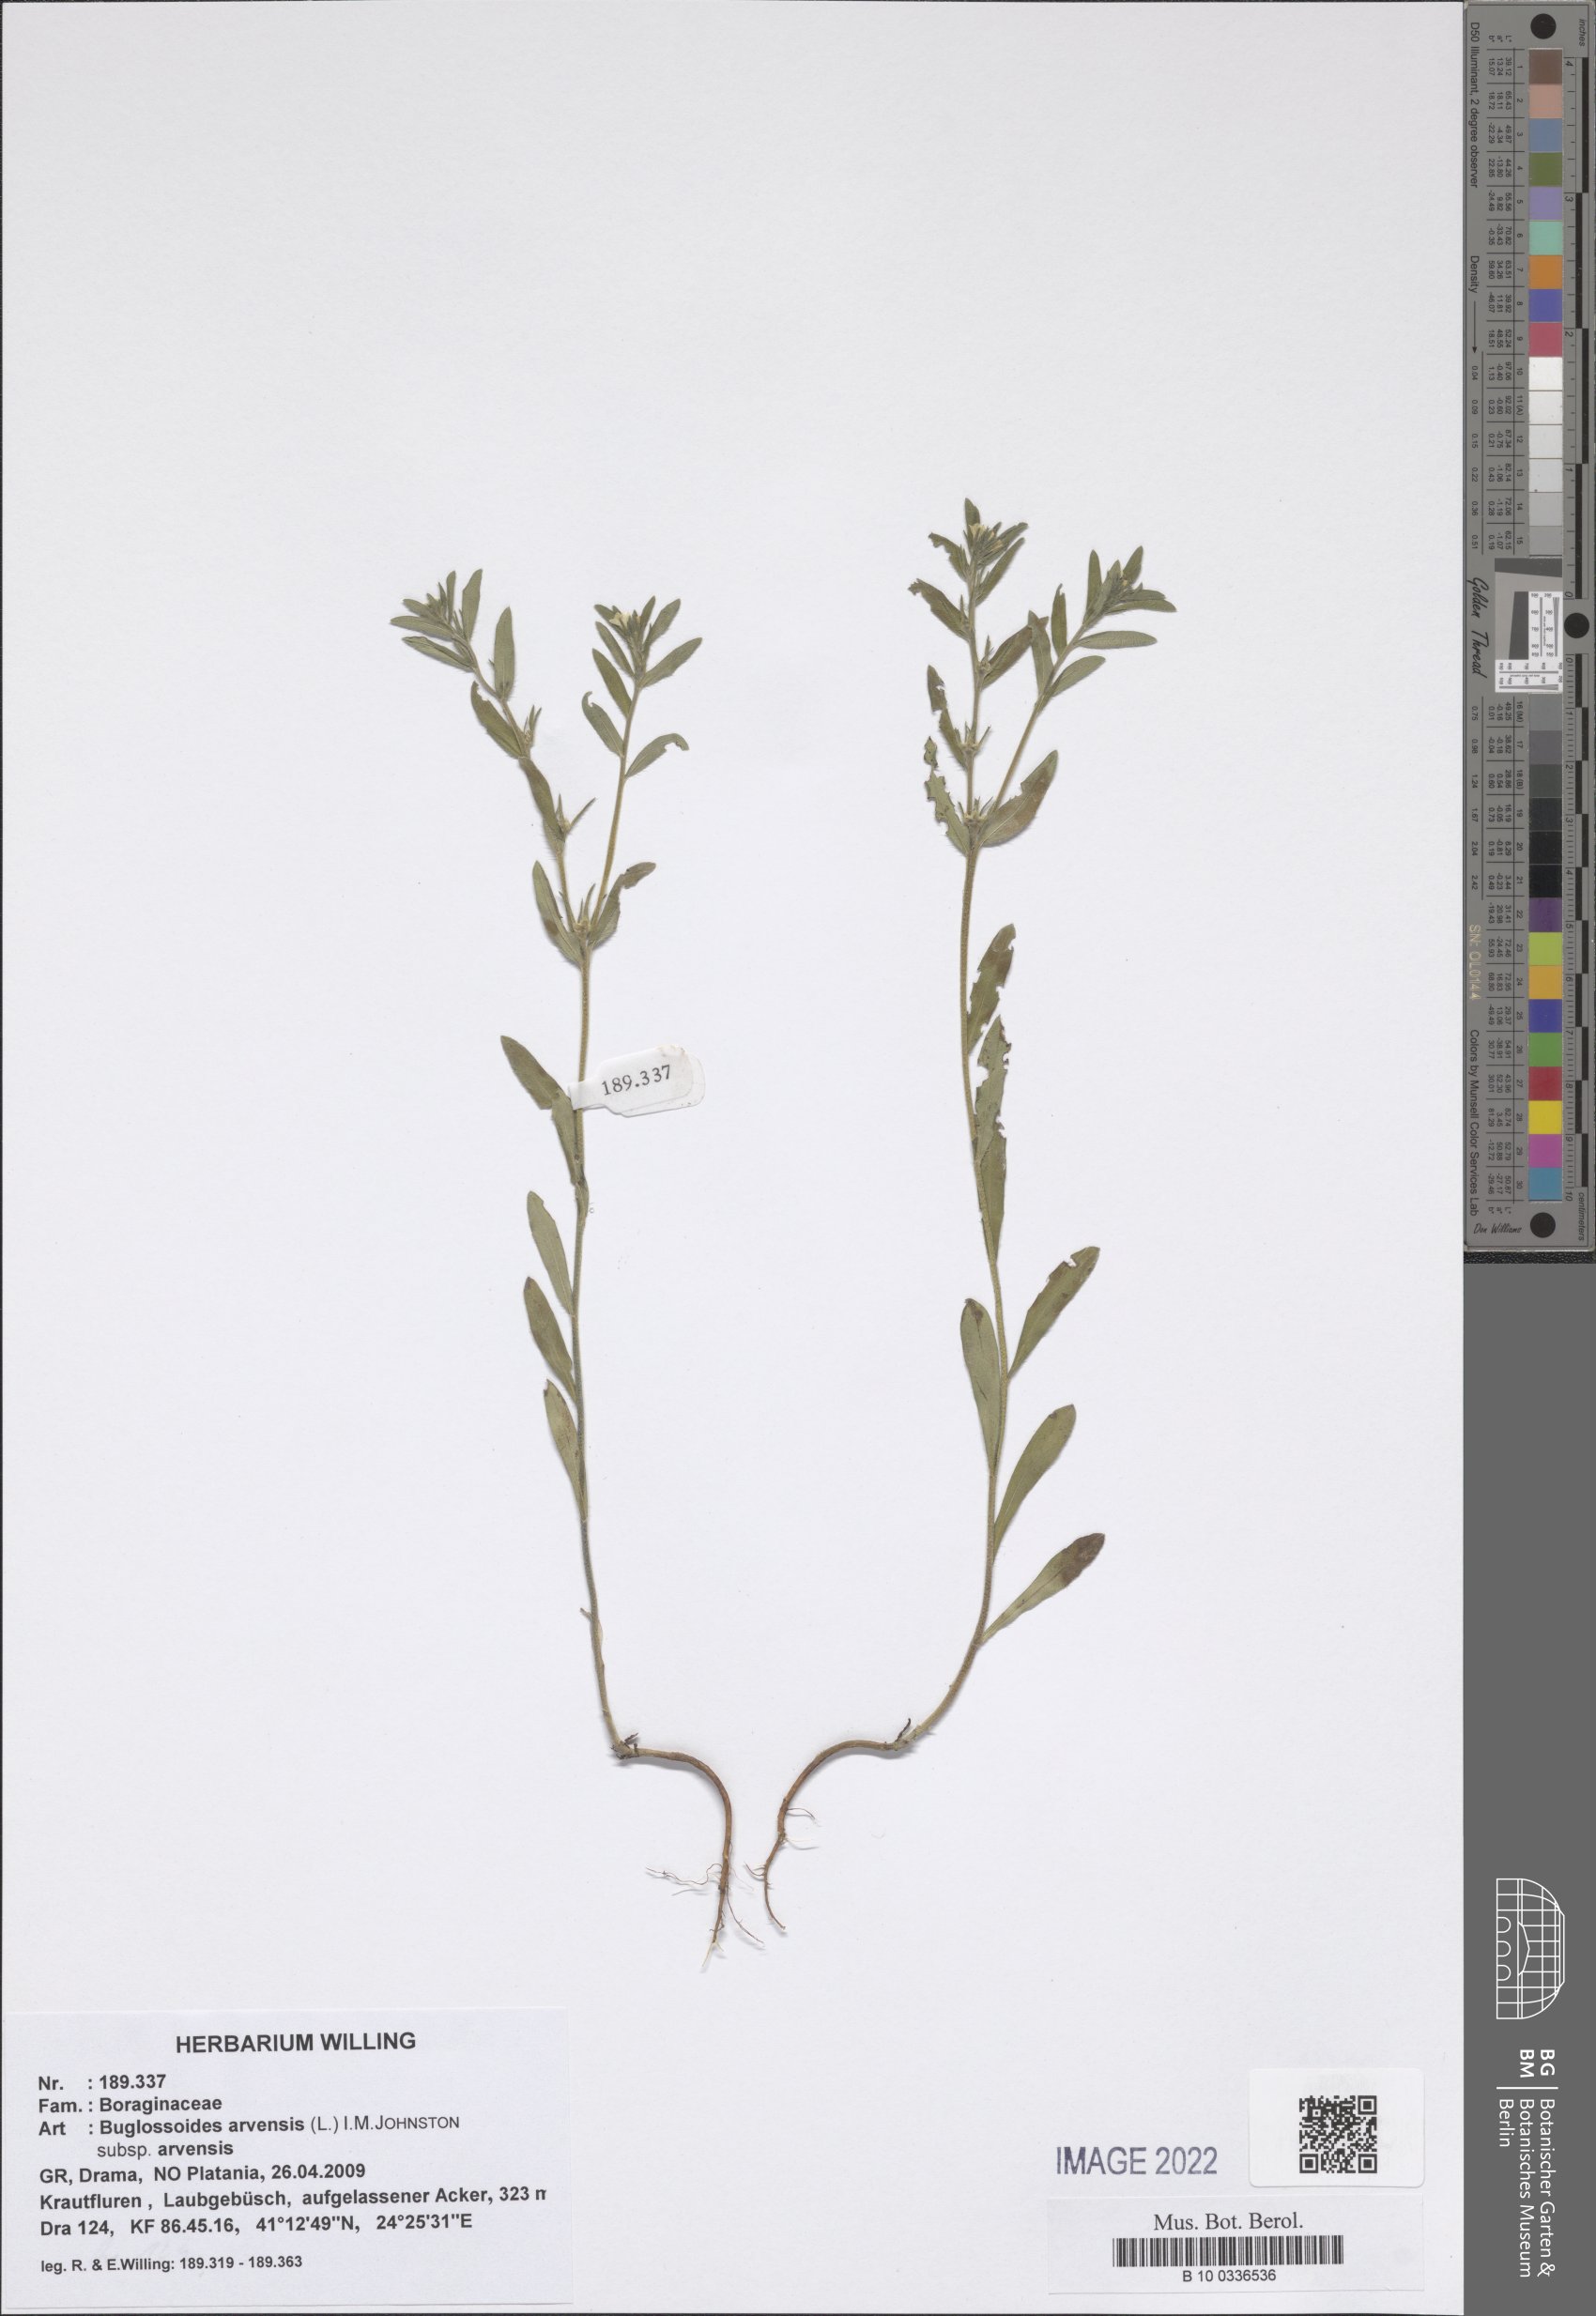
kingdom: Plantae
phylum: Tracheophyta
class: Magnoliopsida
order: Boraginales
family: Boraginaceae
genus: Buglossoides
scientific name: Buglossoides arvensis
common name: Corn gromwell
